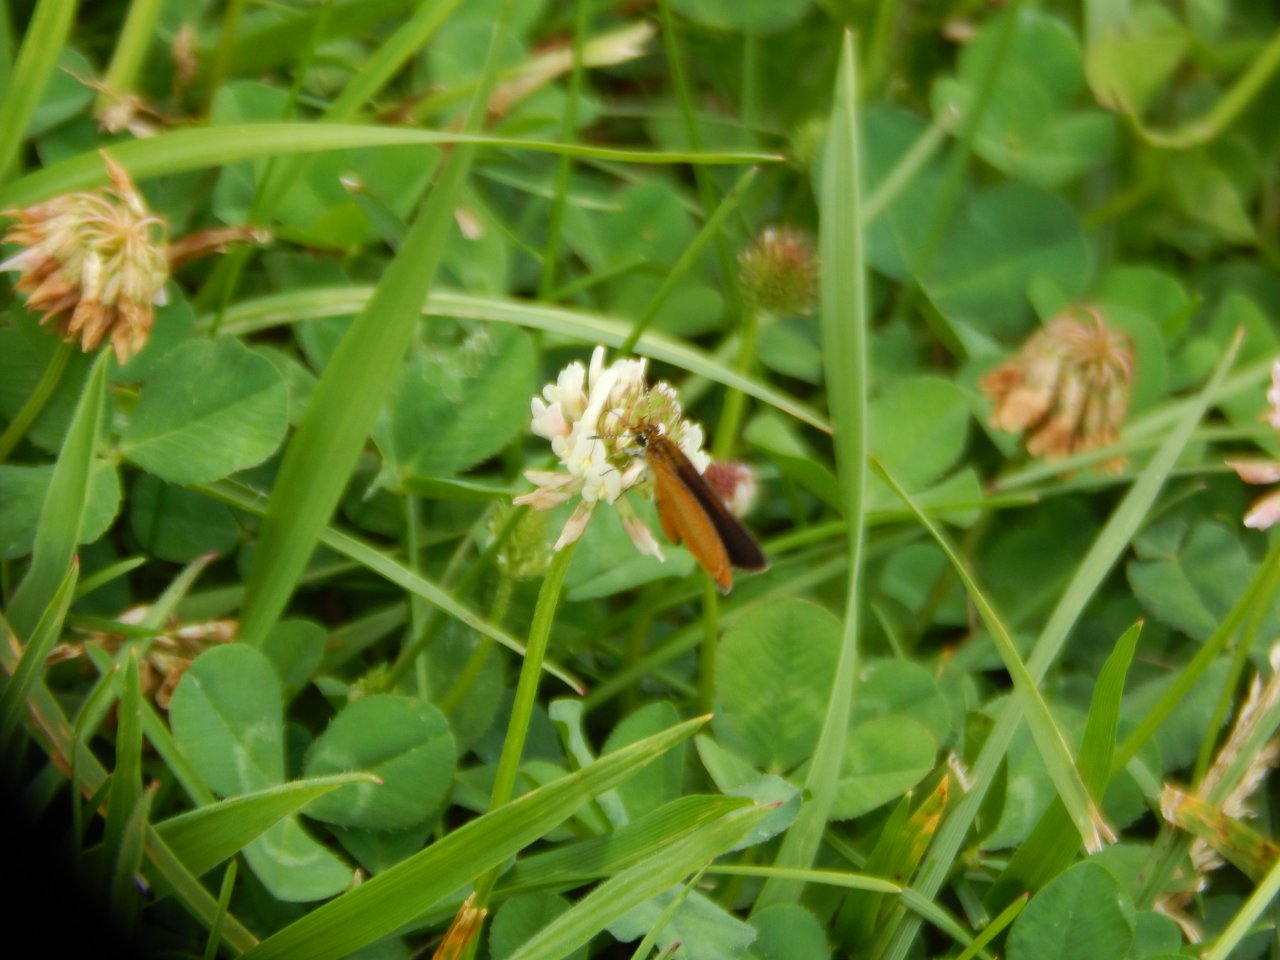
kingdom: Animalia
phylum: Arthropoda
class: Insecta
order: Lepidoptera
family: Hesperiidae
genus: Ancyloxypha
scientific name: Ancyloxypha numitor
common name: Least Skipper
